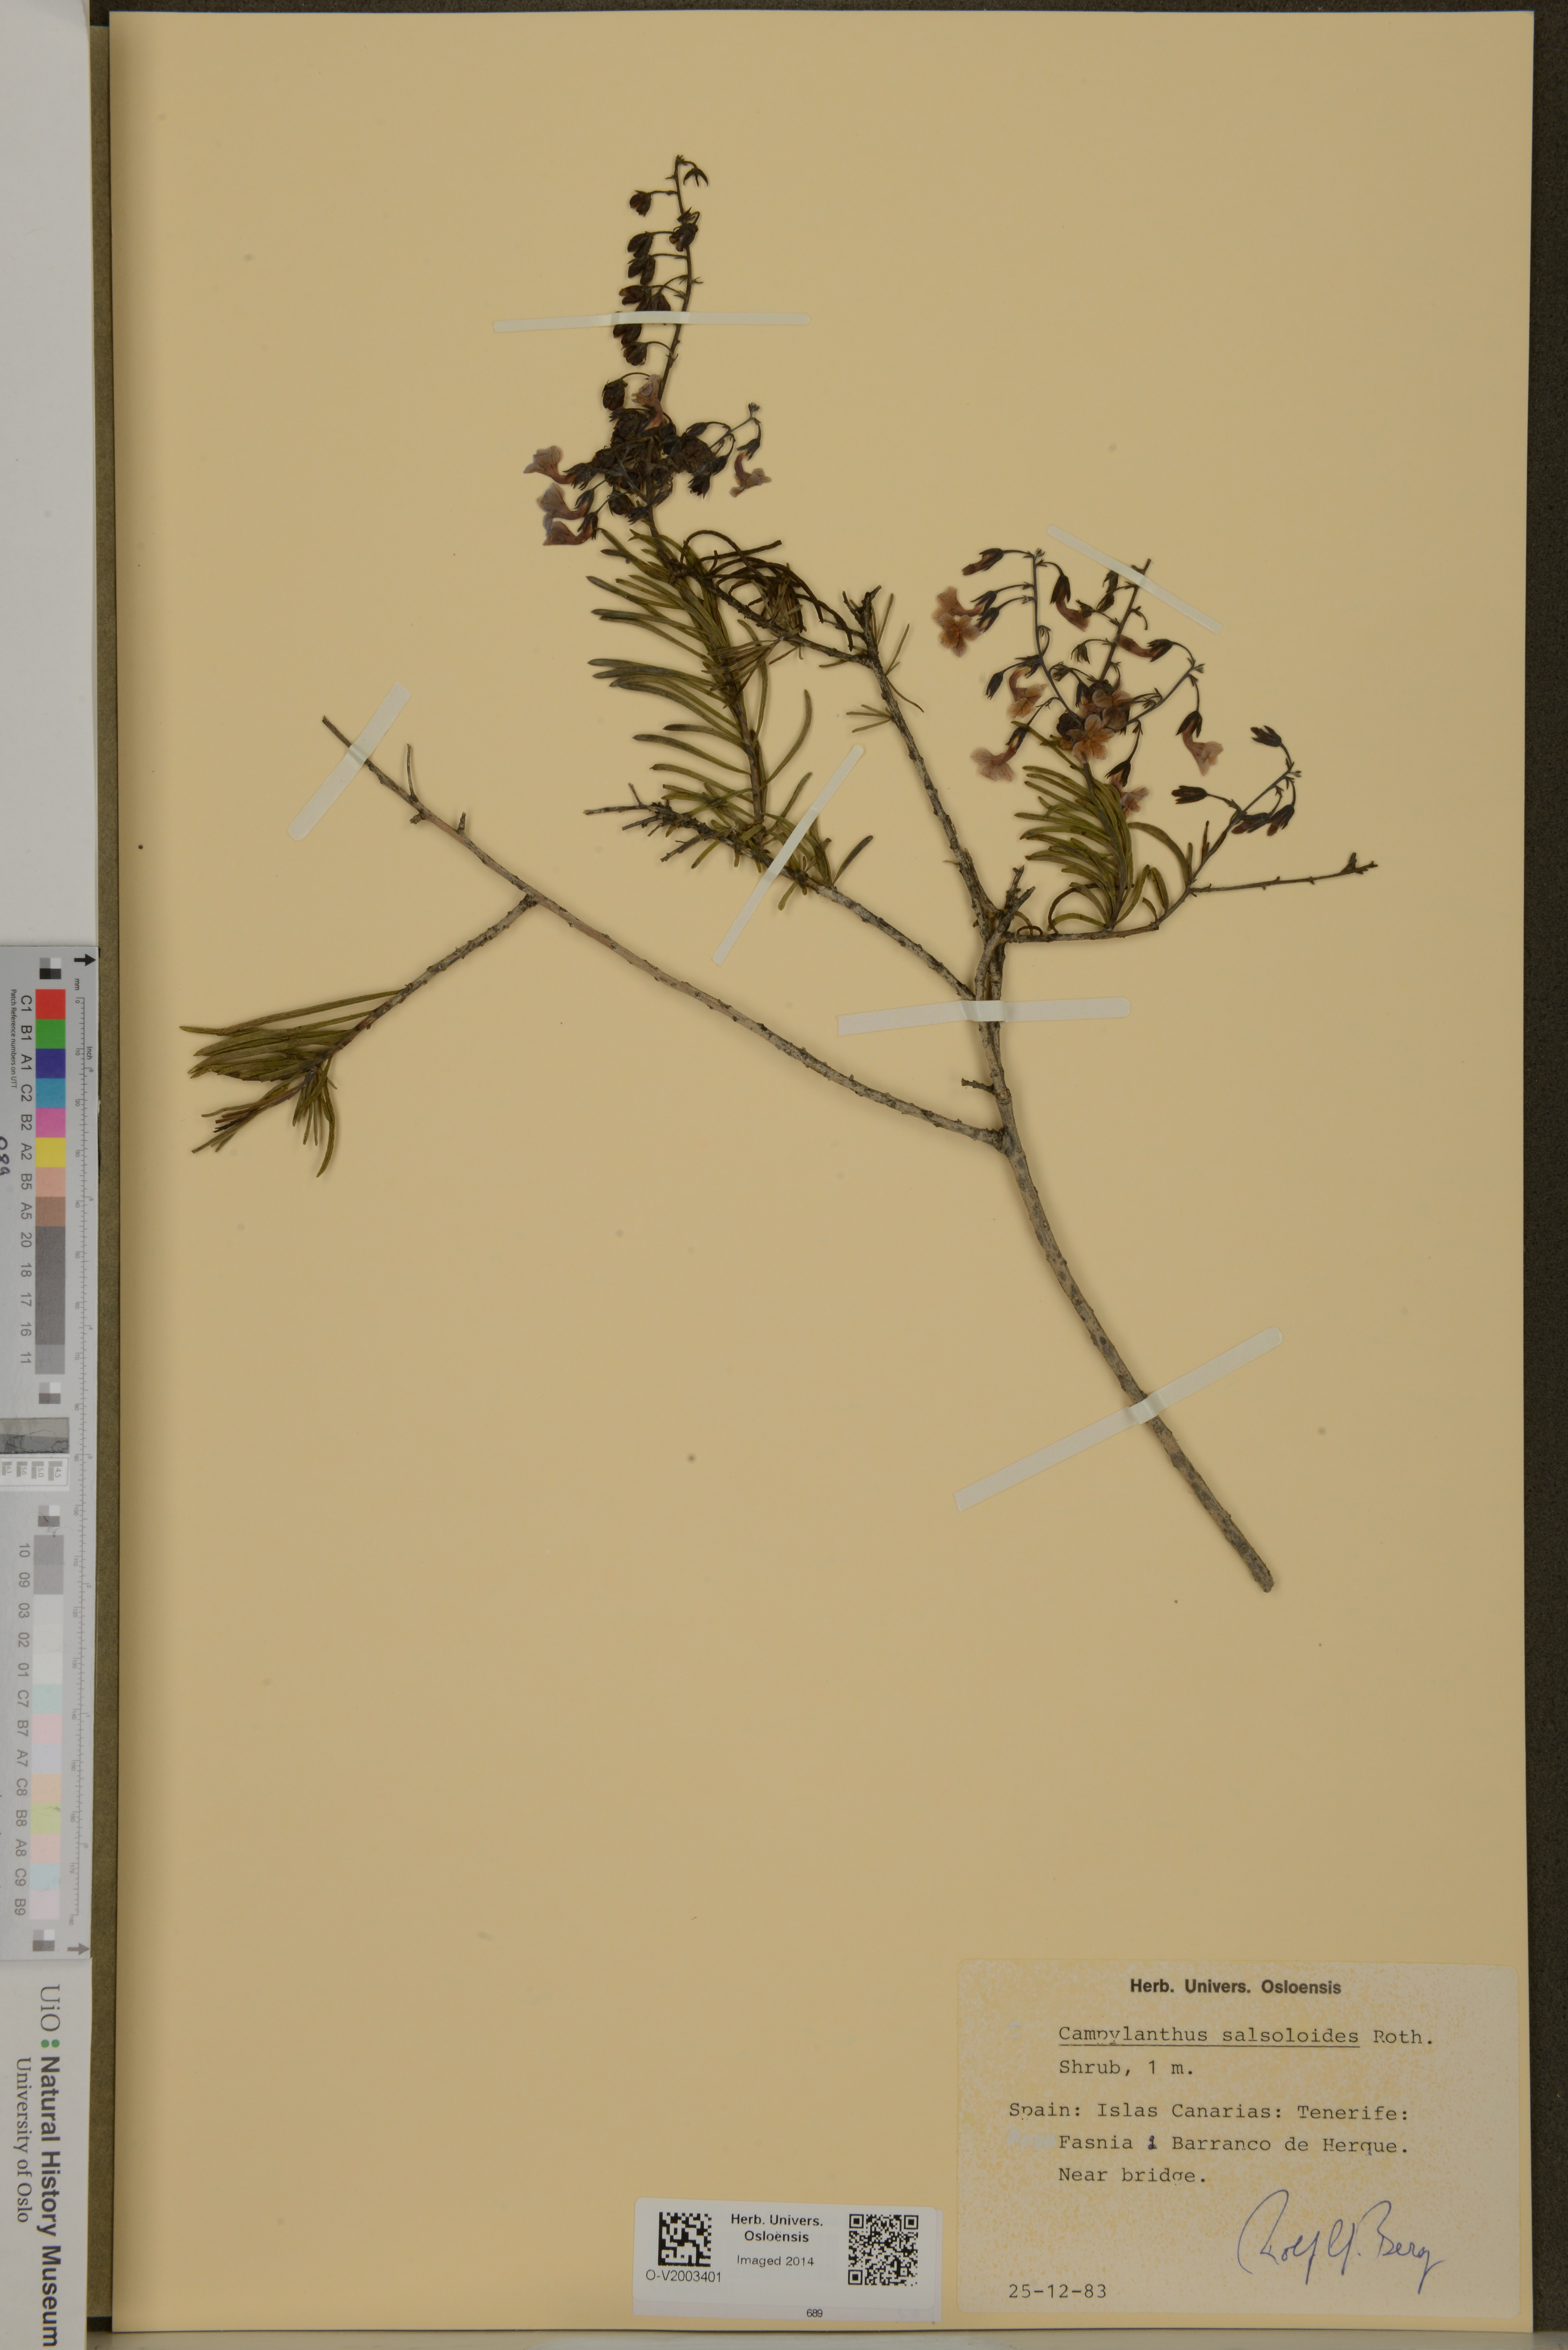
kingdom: Plantae
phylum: Tracheophyta
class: Magnoliopsida
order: Lamiales
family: Plantaginaceae
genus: Campylanthus
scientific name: Campylanthus salsoloides
